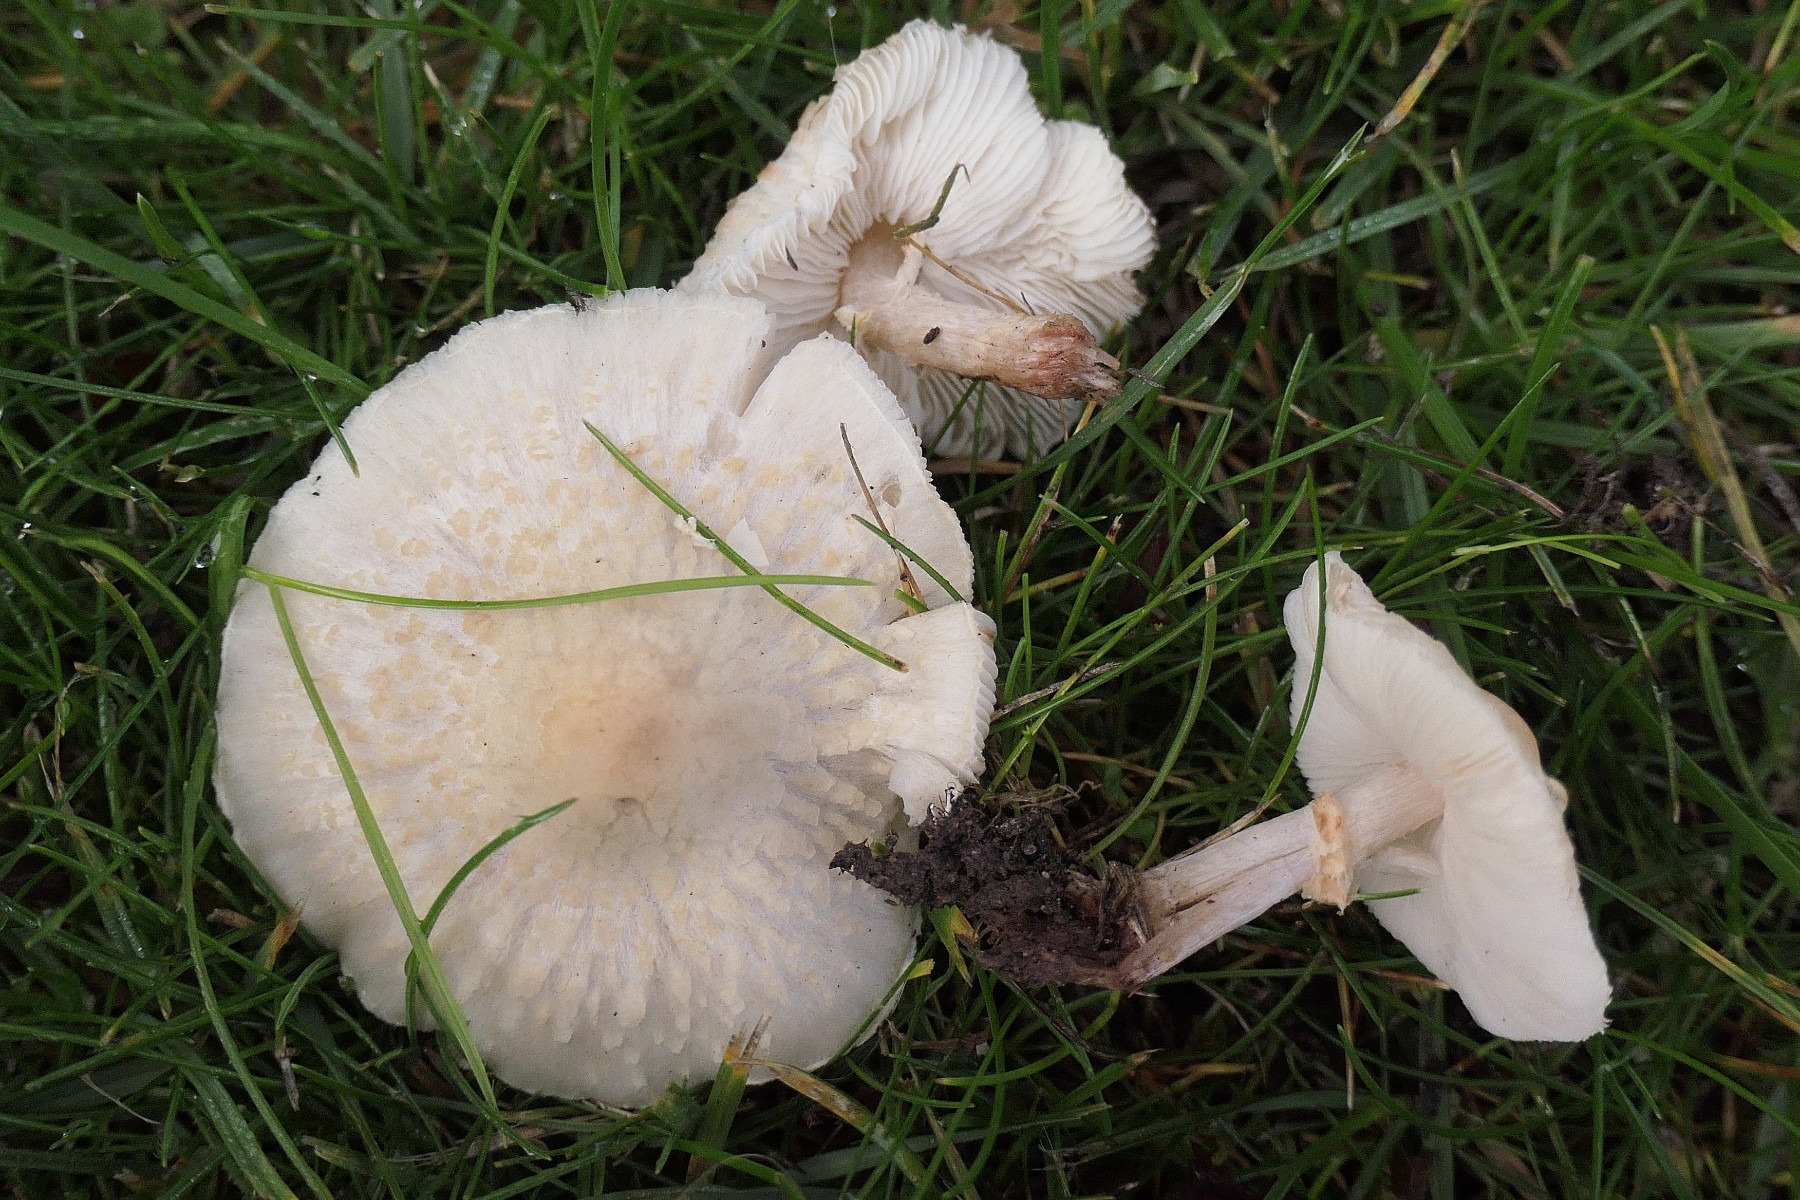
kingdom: Fungi
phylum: Basidiomycota
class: Agaricomycetes
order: Agaricales
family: Agaricaceae
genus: Lepiota
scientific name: Lepiota cristata
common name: stinkende parasolhat
